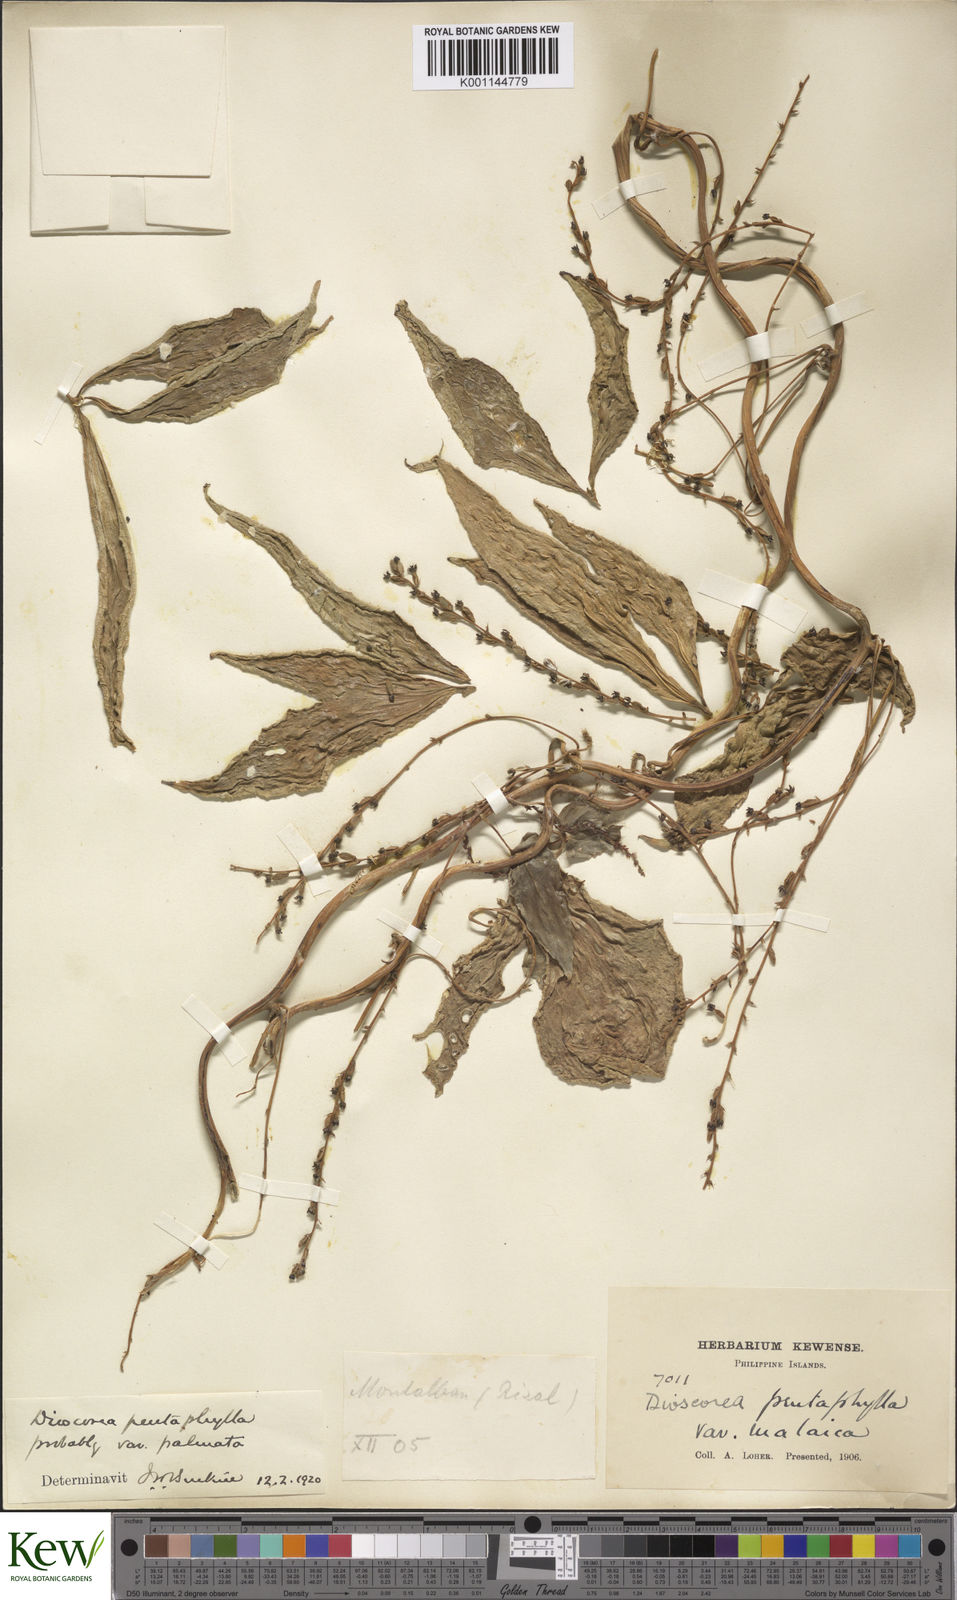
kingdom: Plantae
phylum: Tracheophyta
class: Liliopsida
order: Dioscoreales
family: Dioscoreaceae
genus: Dioscorea
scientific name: Dioscorea pentaphylla
